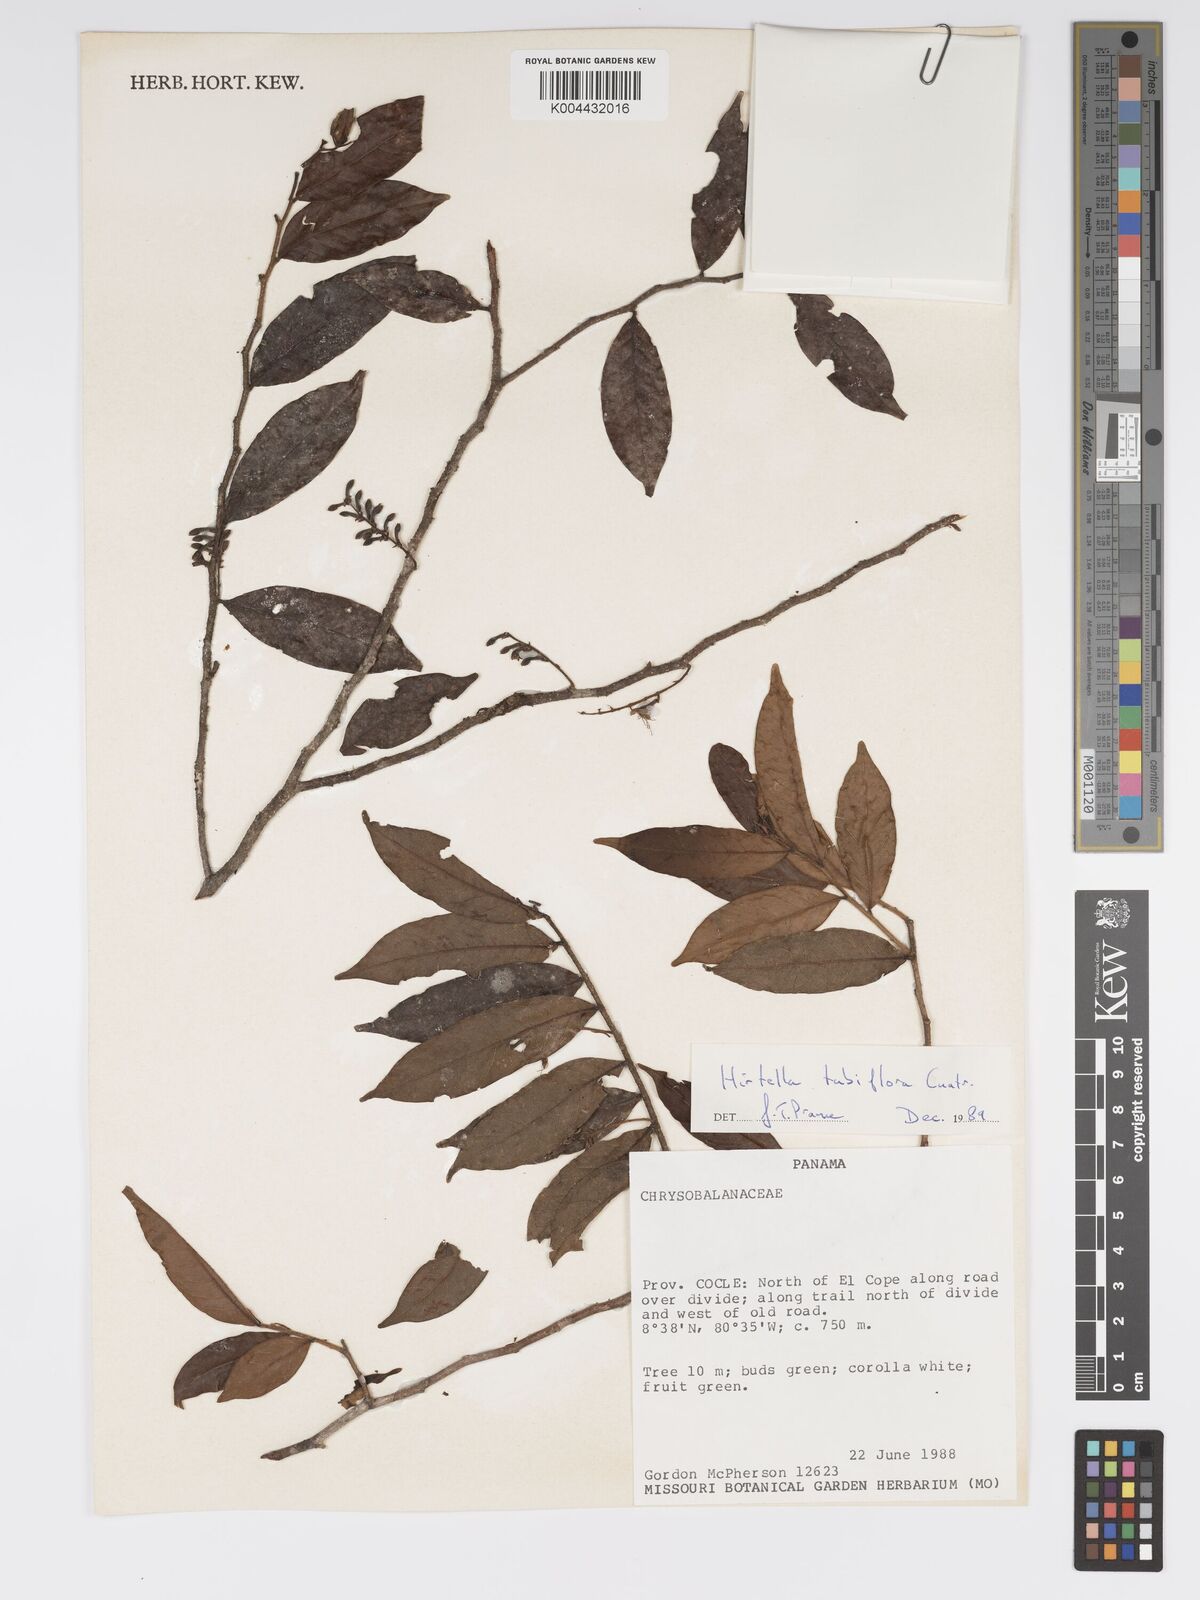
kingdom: Plantae
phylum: Tracheophyta
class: Magnoliopsida
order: Malpighiales
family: Chrysobalanaceae
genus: Hirtella
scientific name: Hirtella tubiflora
